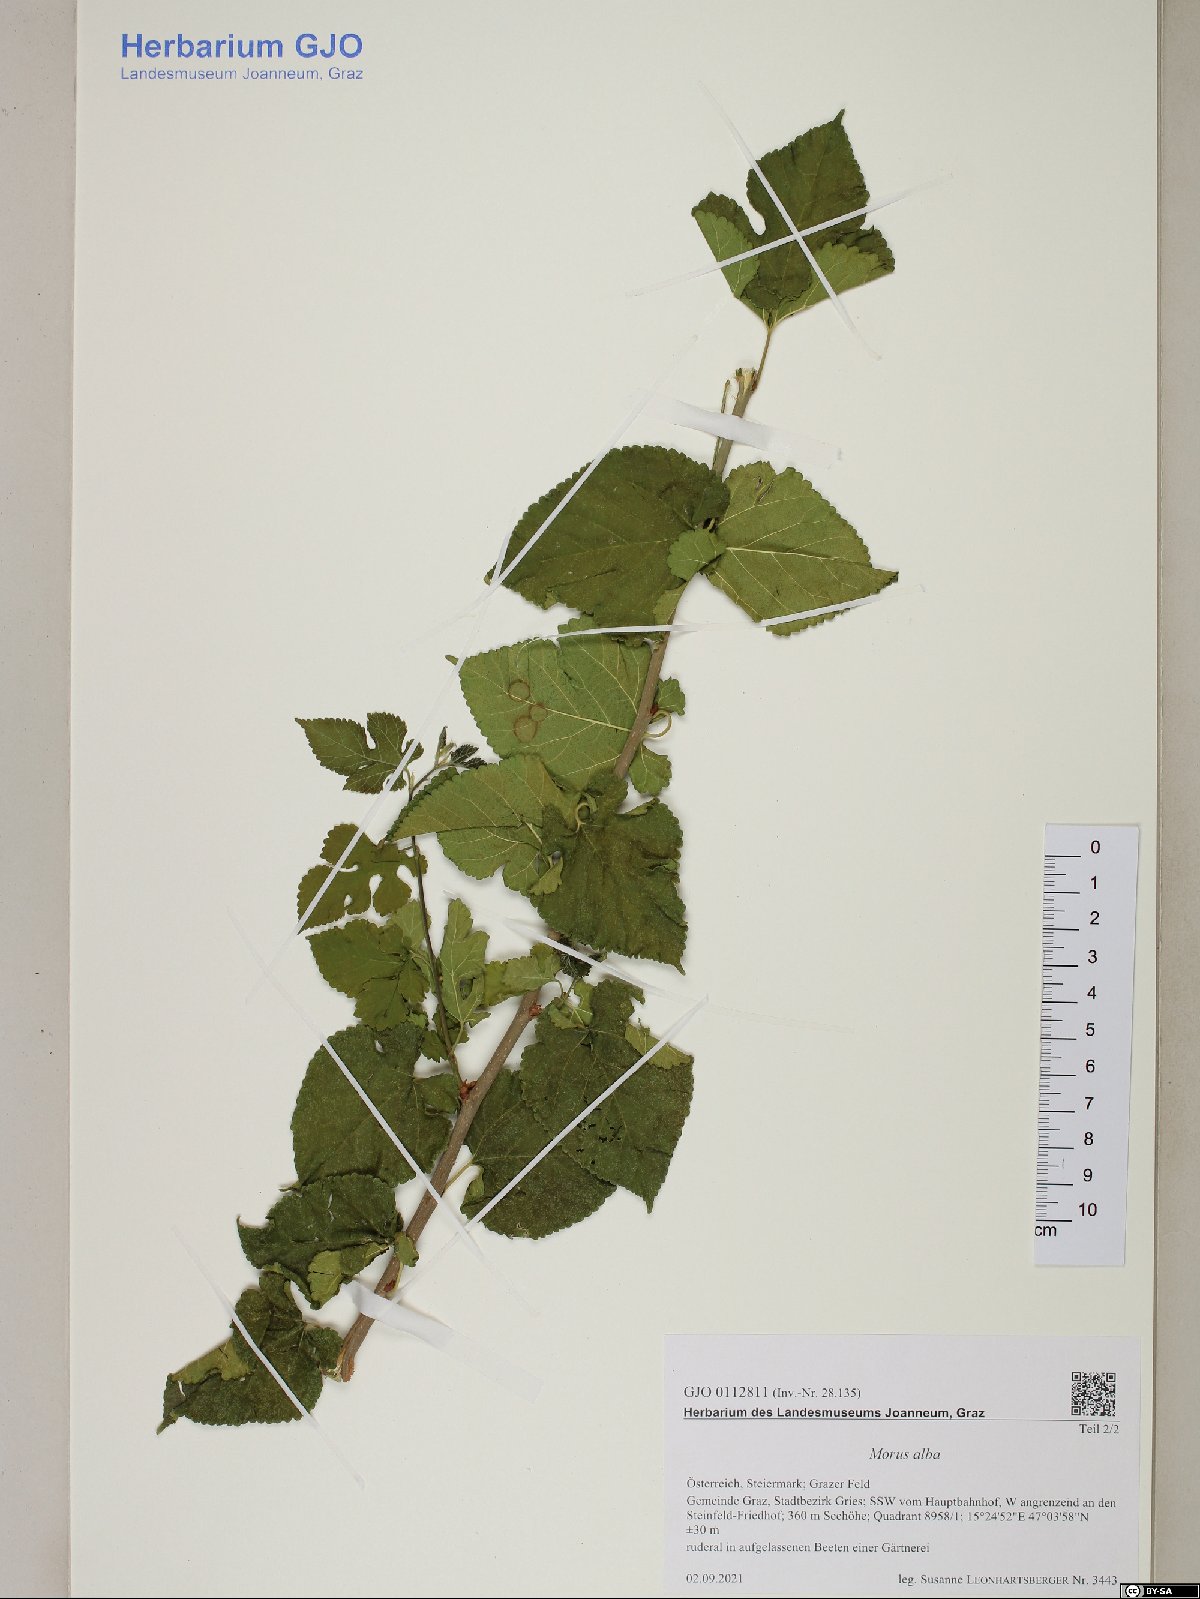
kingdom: Plantae
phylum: Tracheophyta
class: Magnoliopsida
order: Rosales
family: Moraceae
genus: Morus
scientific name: Morus alba
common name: White mulberry
